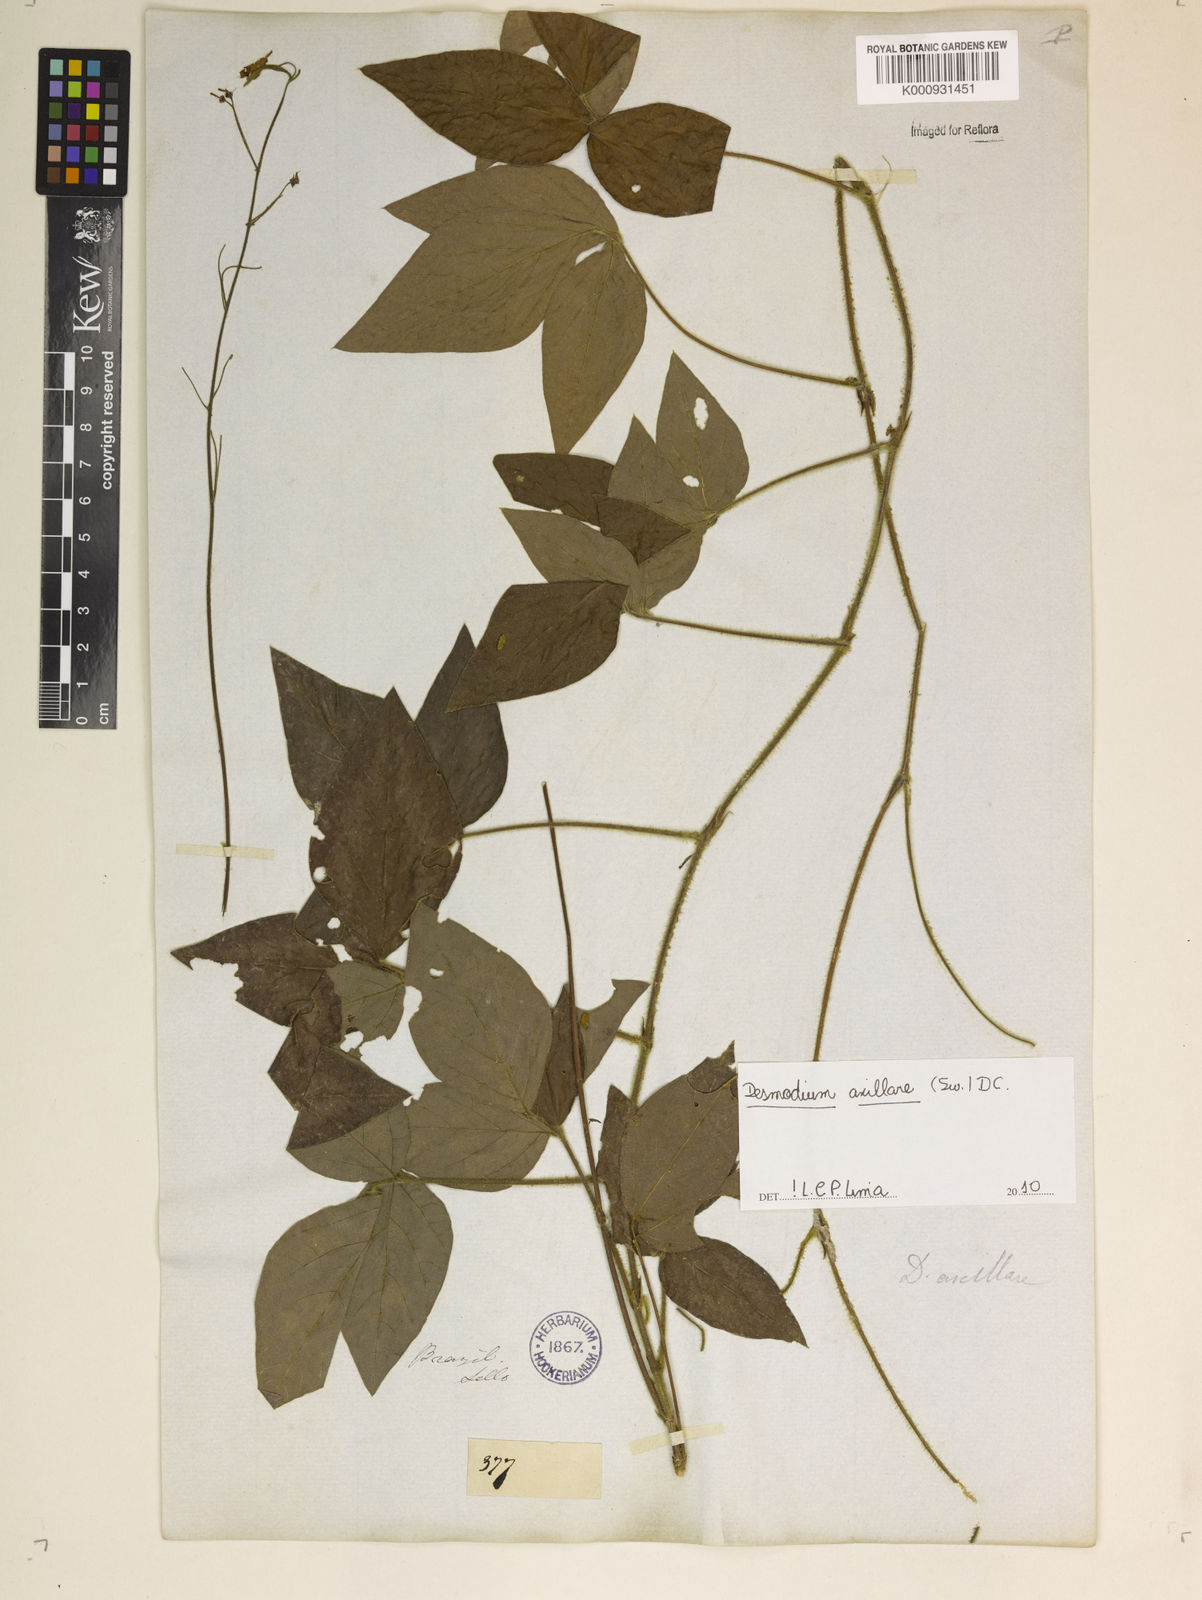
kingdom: Plantae
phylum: Tracheophyta
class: Magnoliopsida
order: Fabales
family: Fabaceae
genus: Desmodium
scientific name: Desmodium axillare
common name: Wire with
